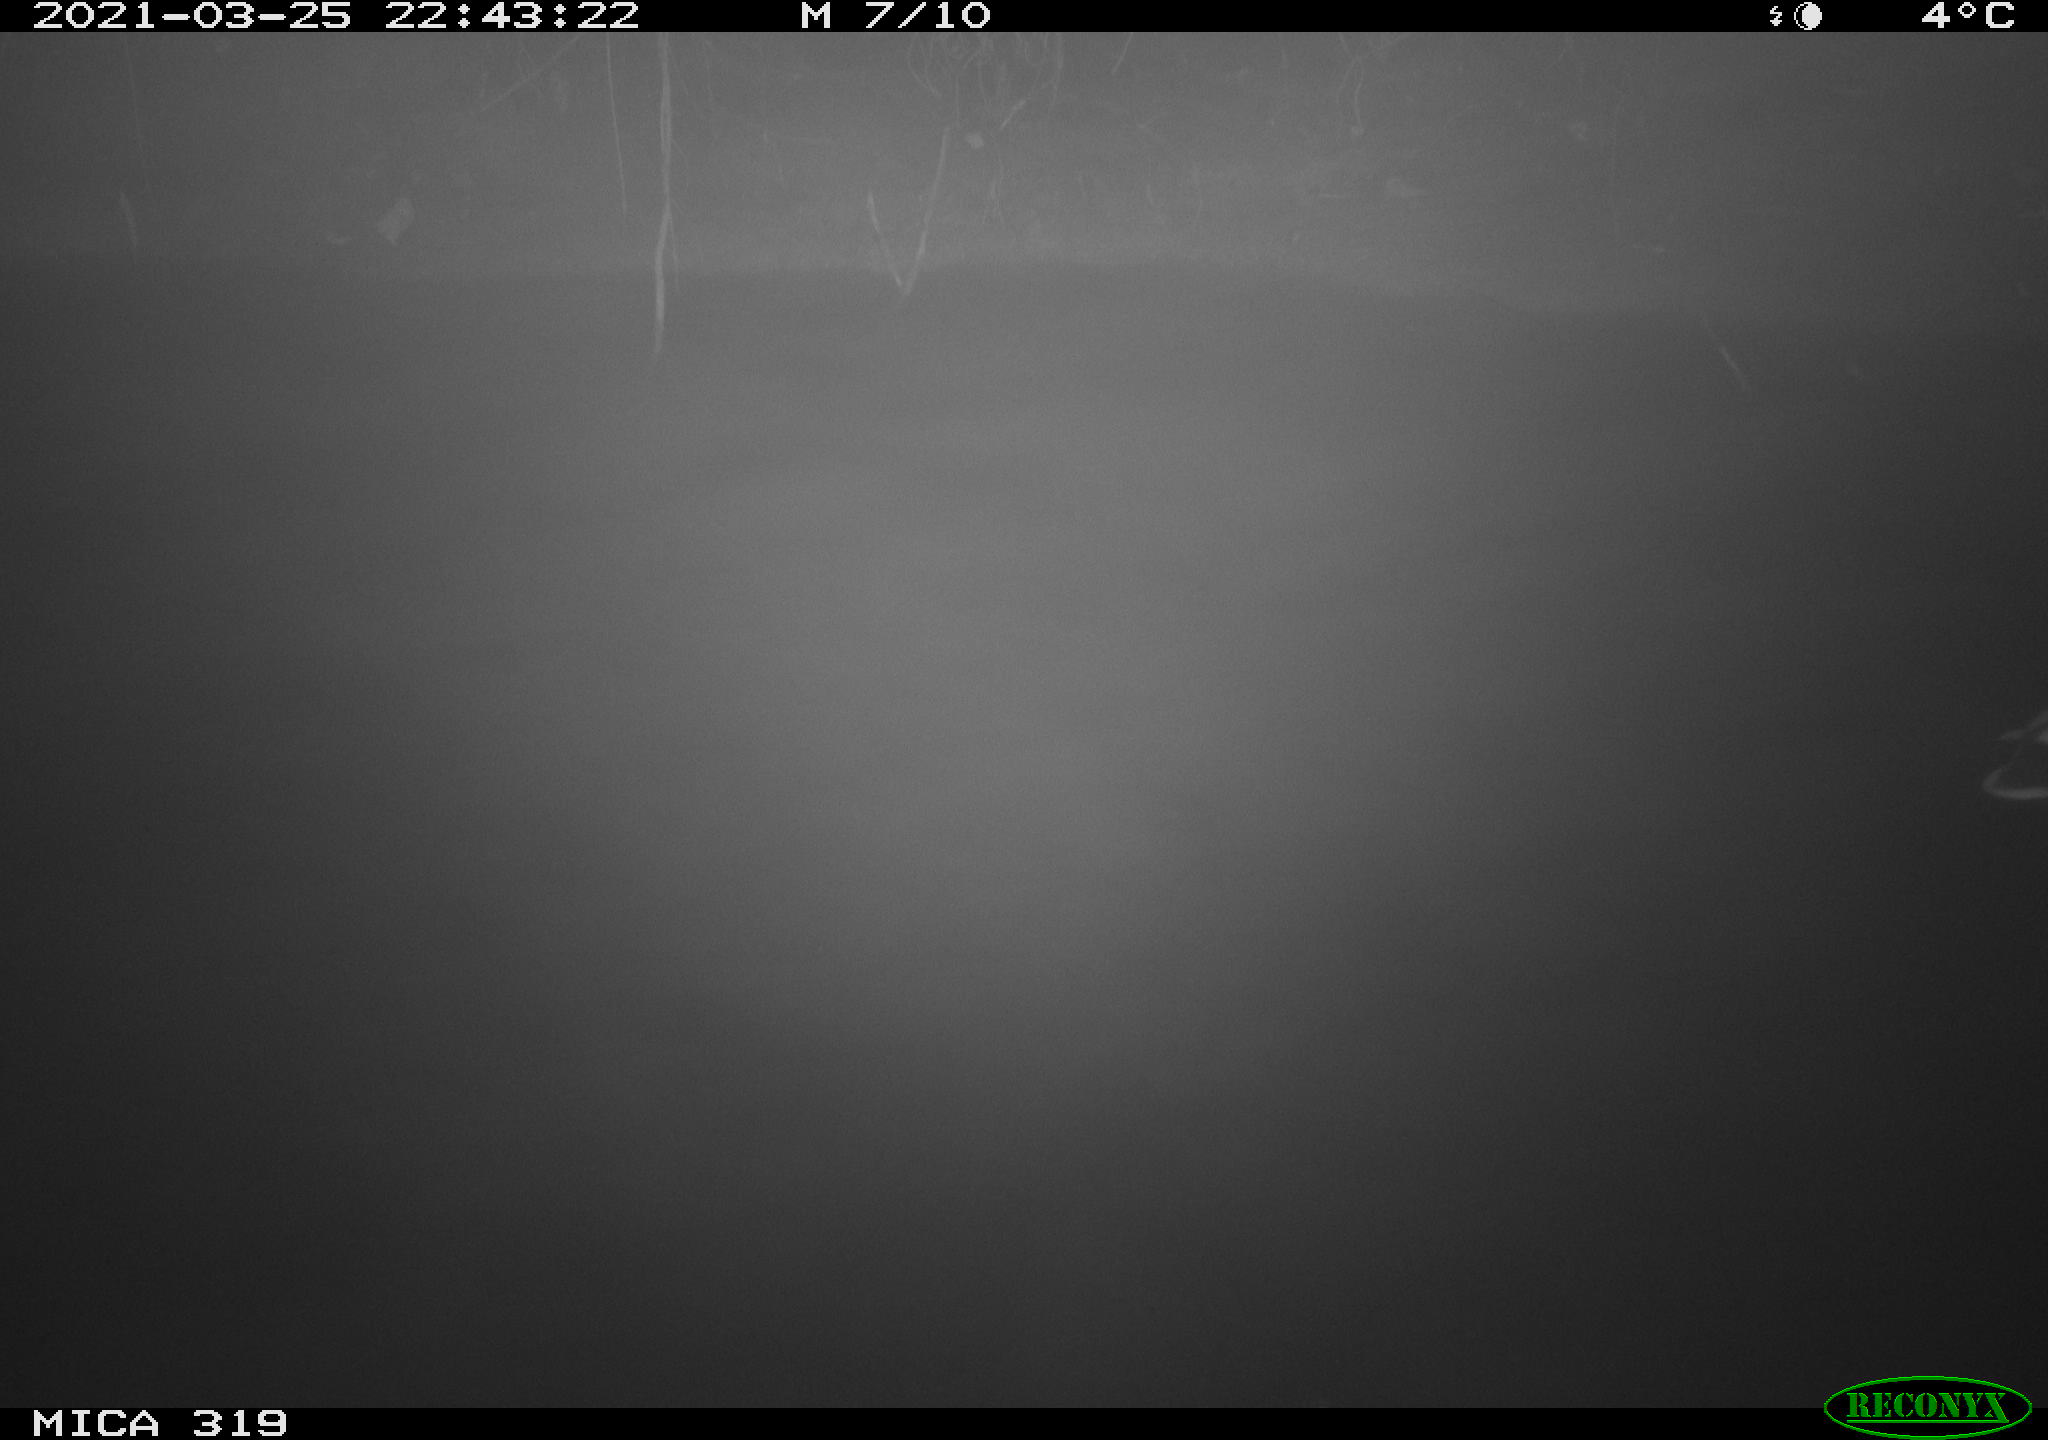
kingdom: Animalia
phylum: Chordata
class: Aves
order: Anseriformes
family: Anatidae
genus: Anas
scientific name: Anas platyrhynchos
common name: Mallard
